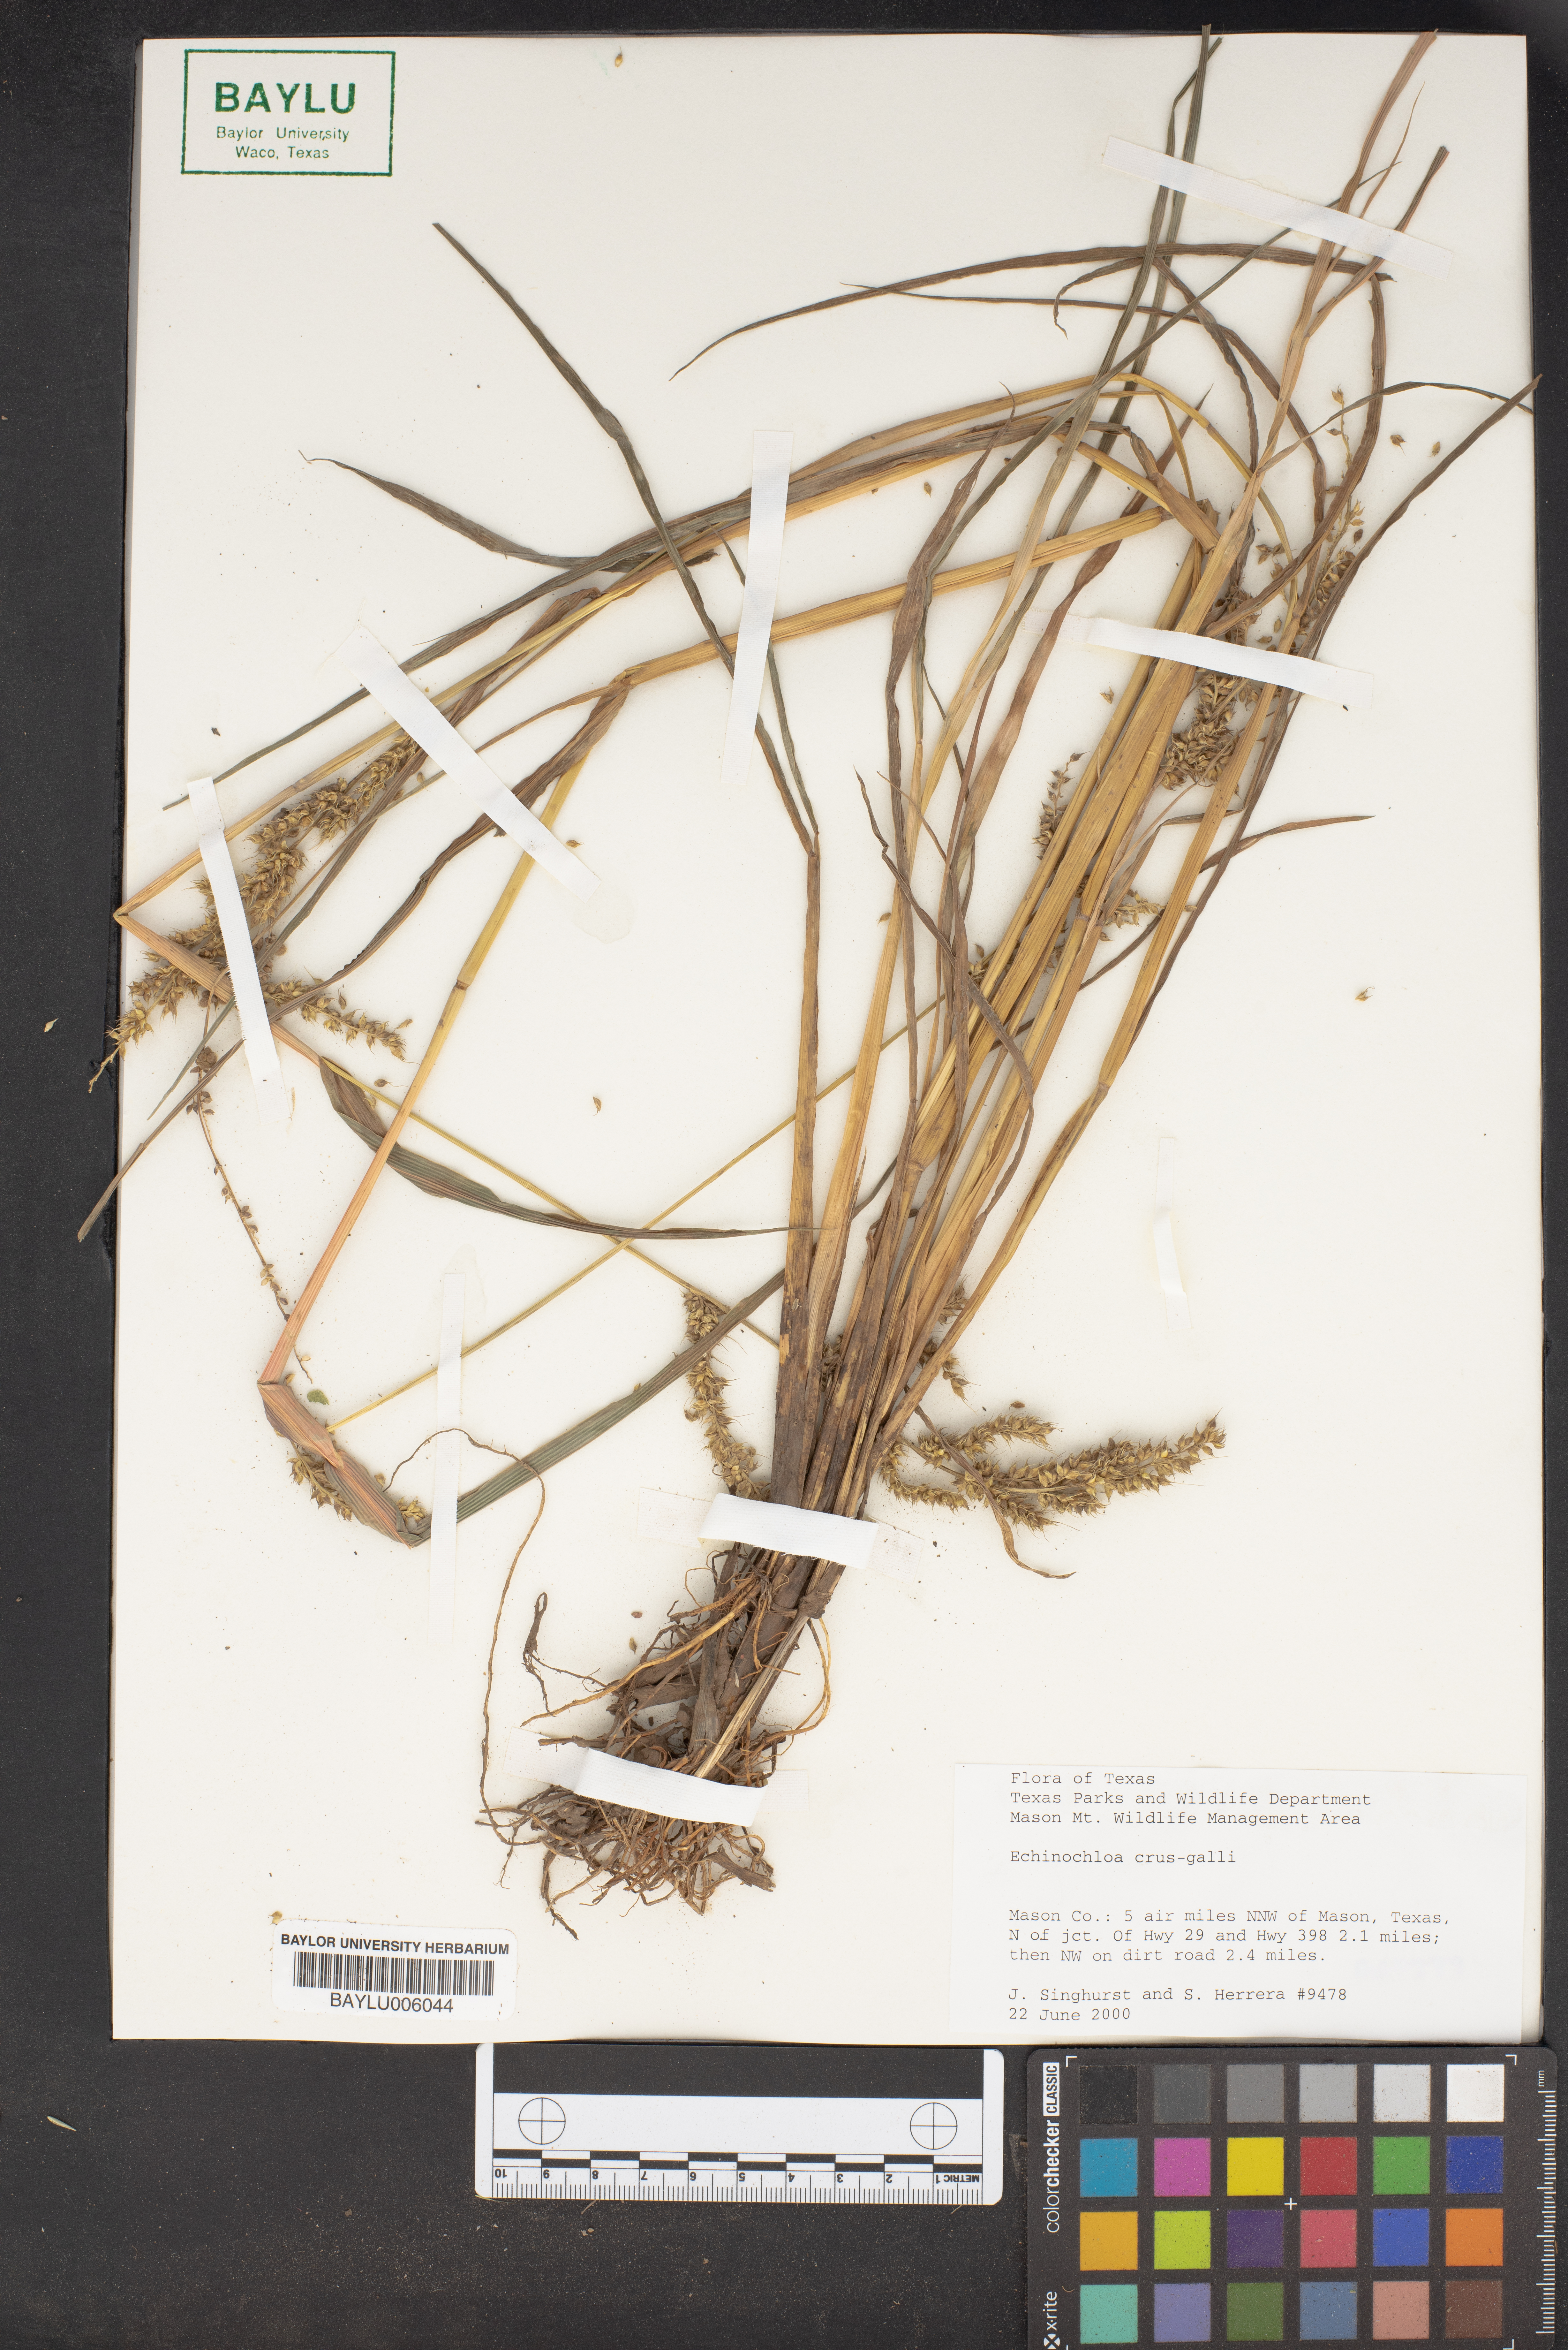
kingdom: Plantae
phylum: Tracheophyta
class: Liliopsida
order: Poales
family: Poaceae
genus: Echinochloa
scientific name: Echinochloa crus-galli
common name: Cockspur
